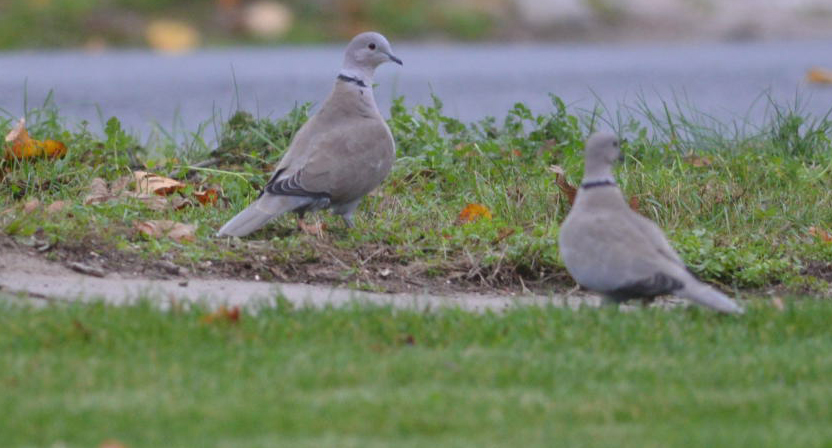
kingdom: Animalia
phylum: Chordata
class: Aves
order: Columbiformes
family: Columbidae
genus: Streptopelia
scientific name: Streptopelia decaocto
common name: Eurasian collared dove
